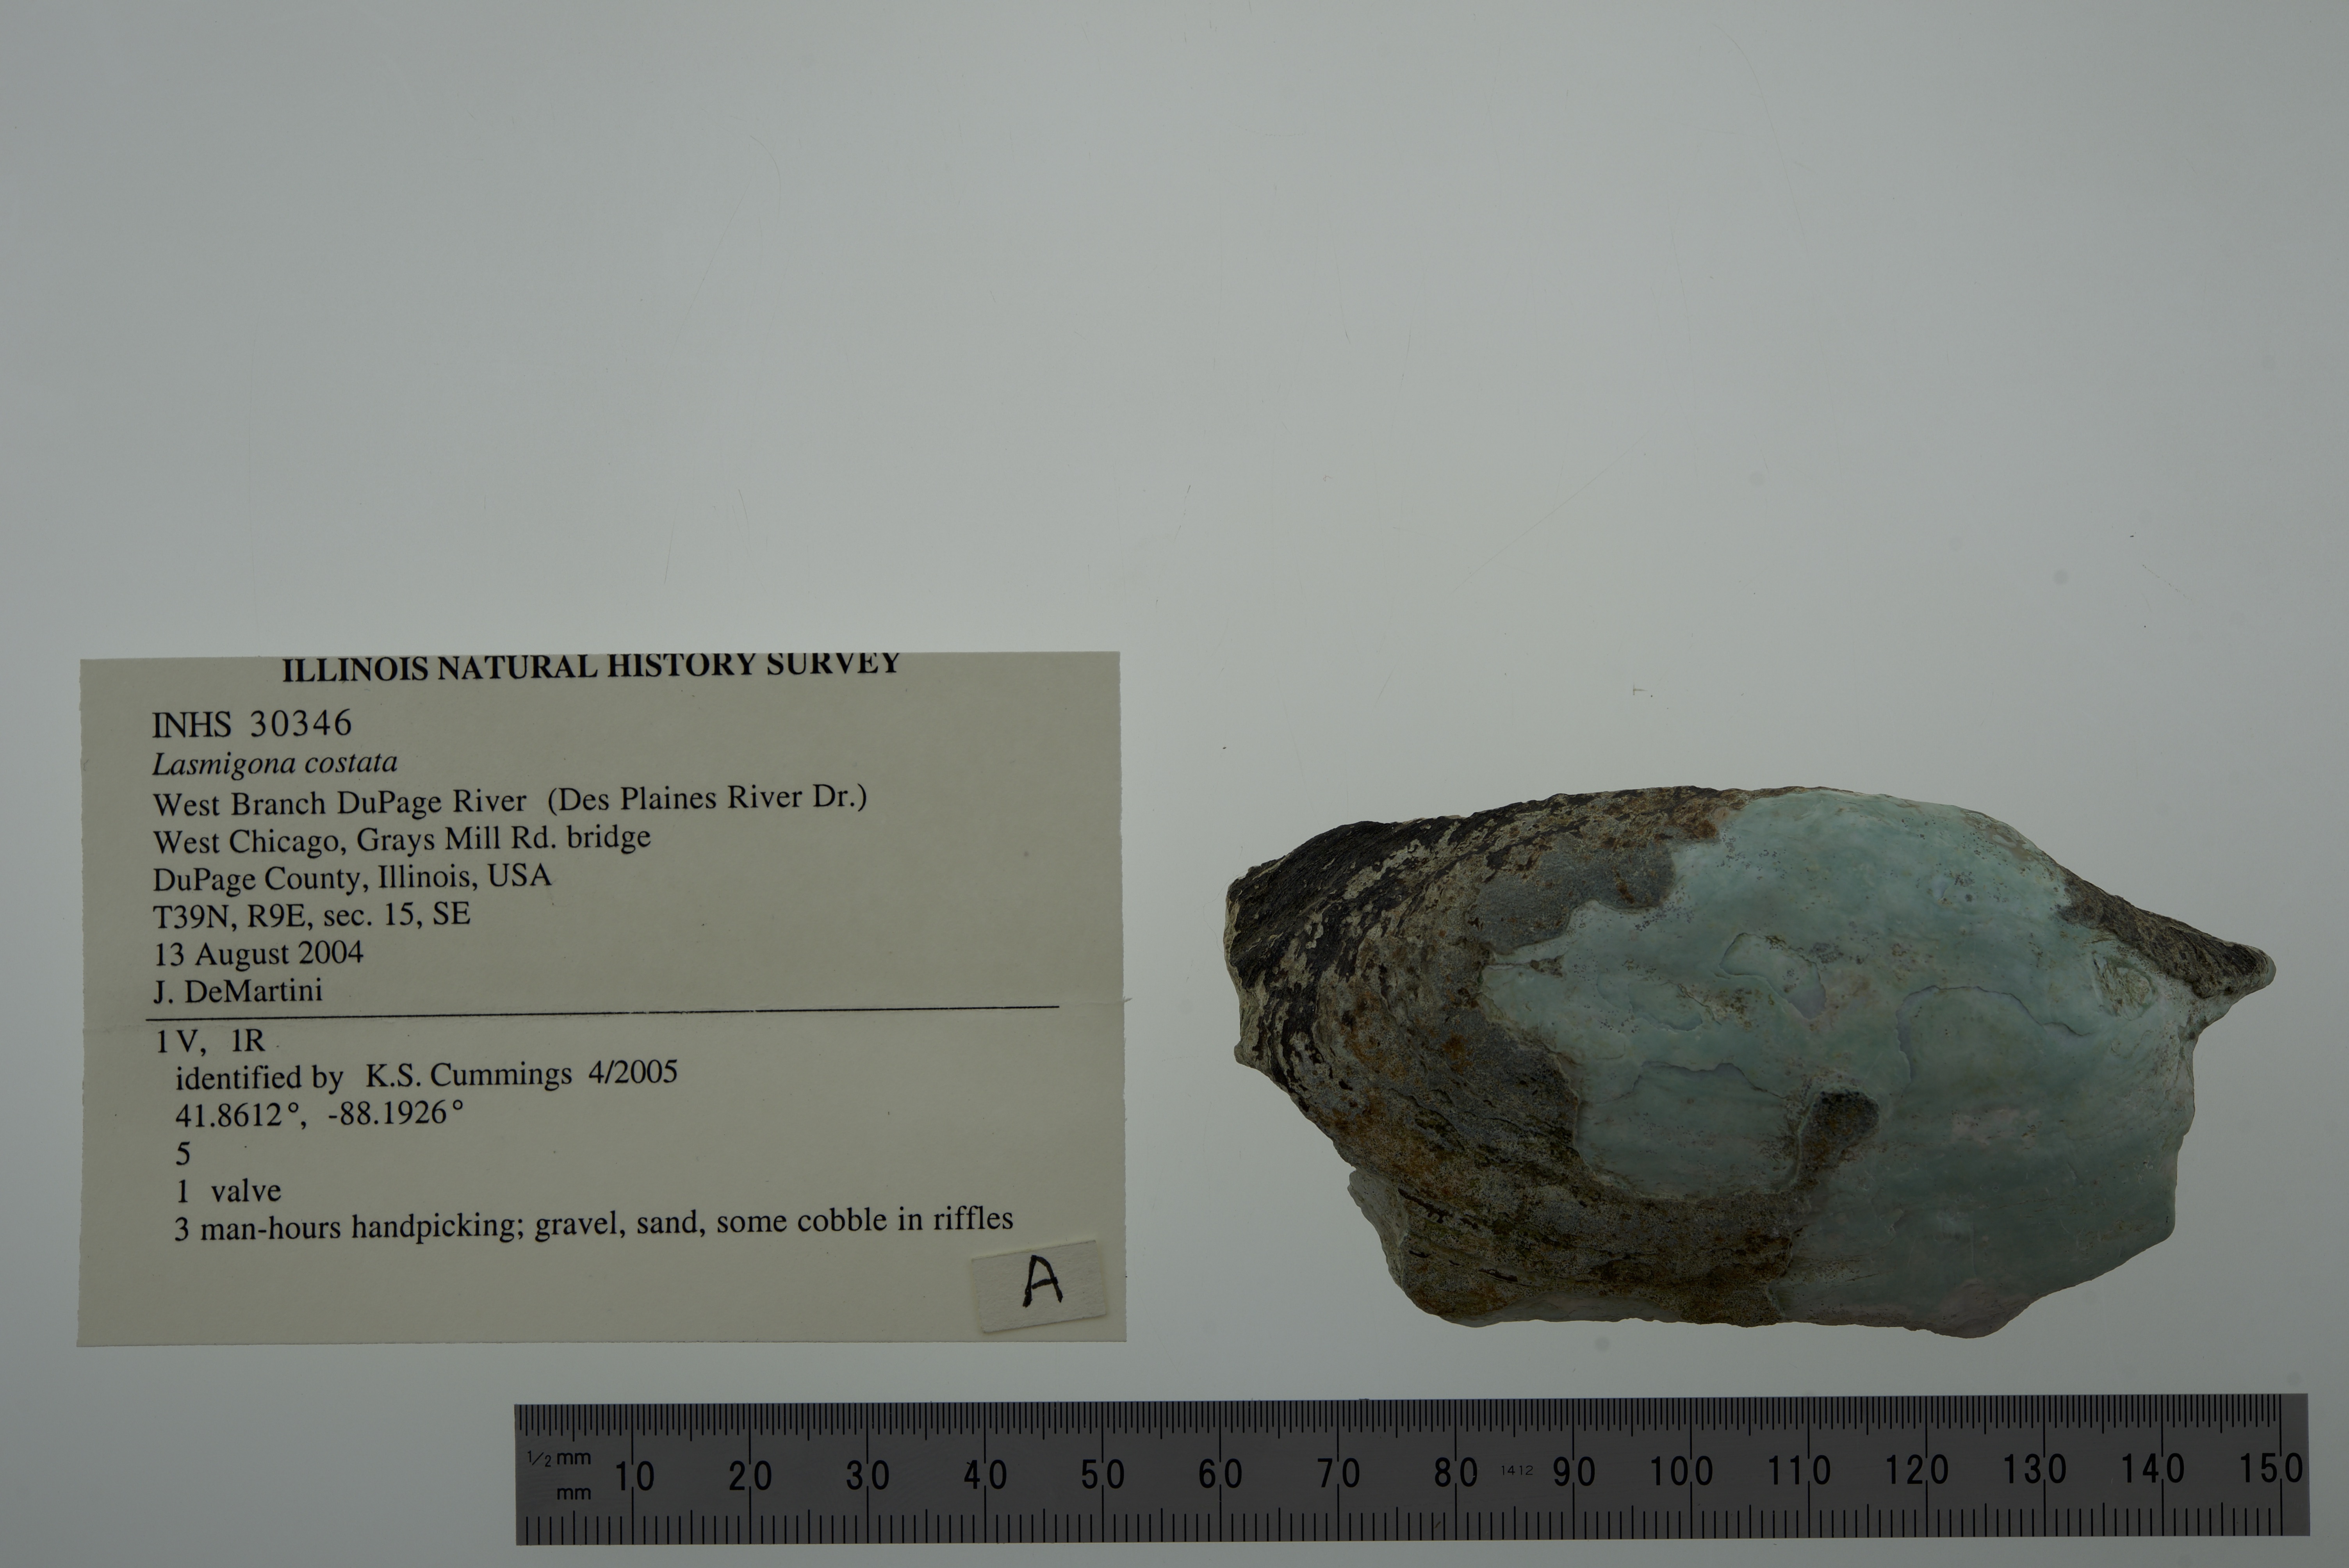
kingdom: Animalia
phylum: Mollusca
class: Bivalvia
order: Unionida
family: Unionidae
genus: Lasmigona
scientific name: Lasmigona costata
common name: Flutedshell
